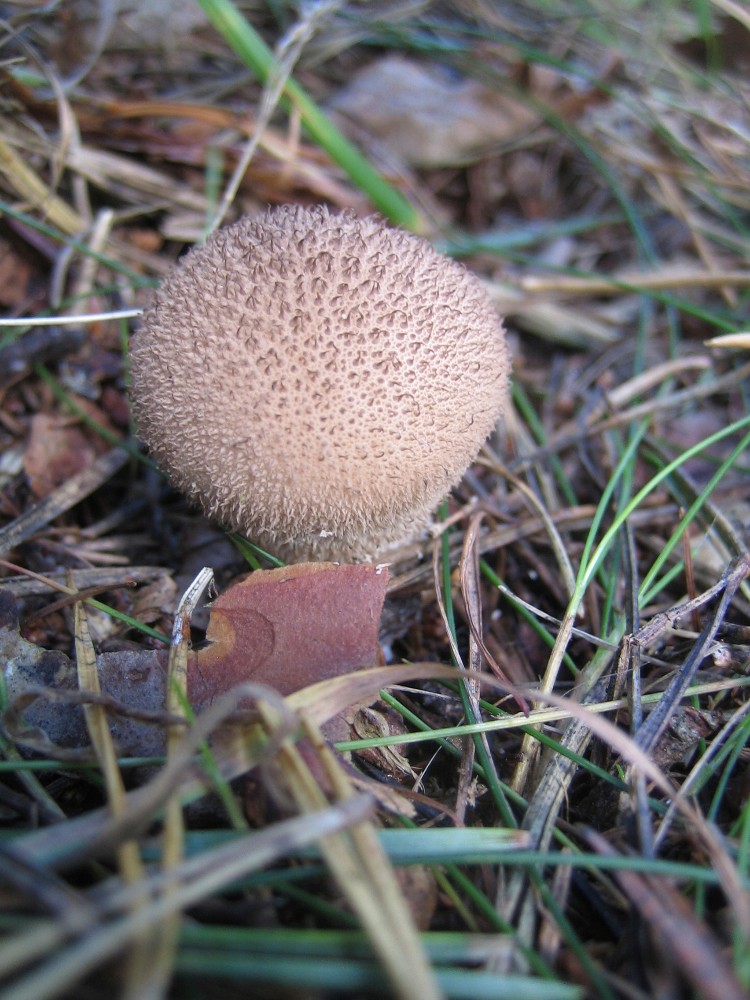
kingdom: Fungi
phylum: Basidiomycota
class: Agaricomycetes
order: Agaricales
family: Lycoperdaceae
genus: Lycoperdon
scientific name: Lycoperdon nigrescens
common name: sortagtig støvbold
